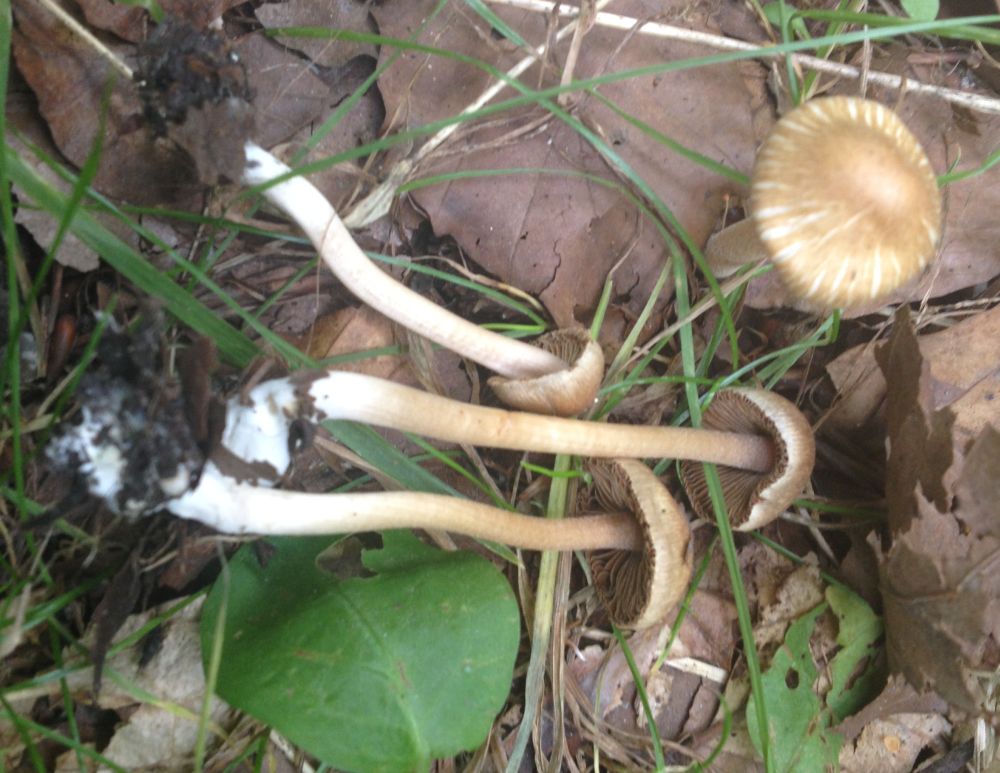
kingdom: Fungi
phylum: Basidiomycota
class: Agaricomycetes
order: Agaricales
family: Inocybaceae
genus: Inocybe
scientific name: Inocybe
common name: trævlhat
